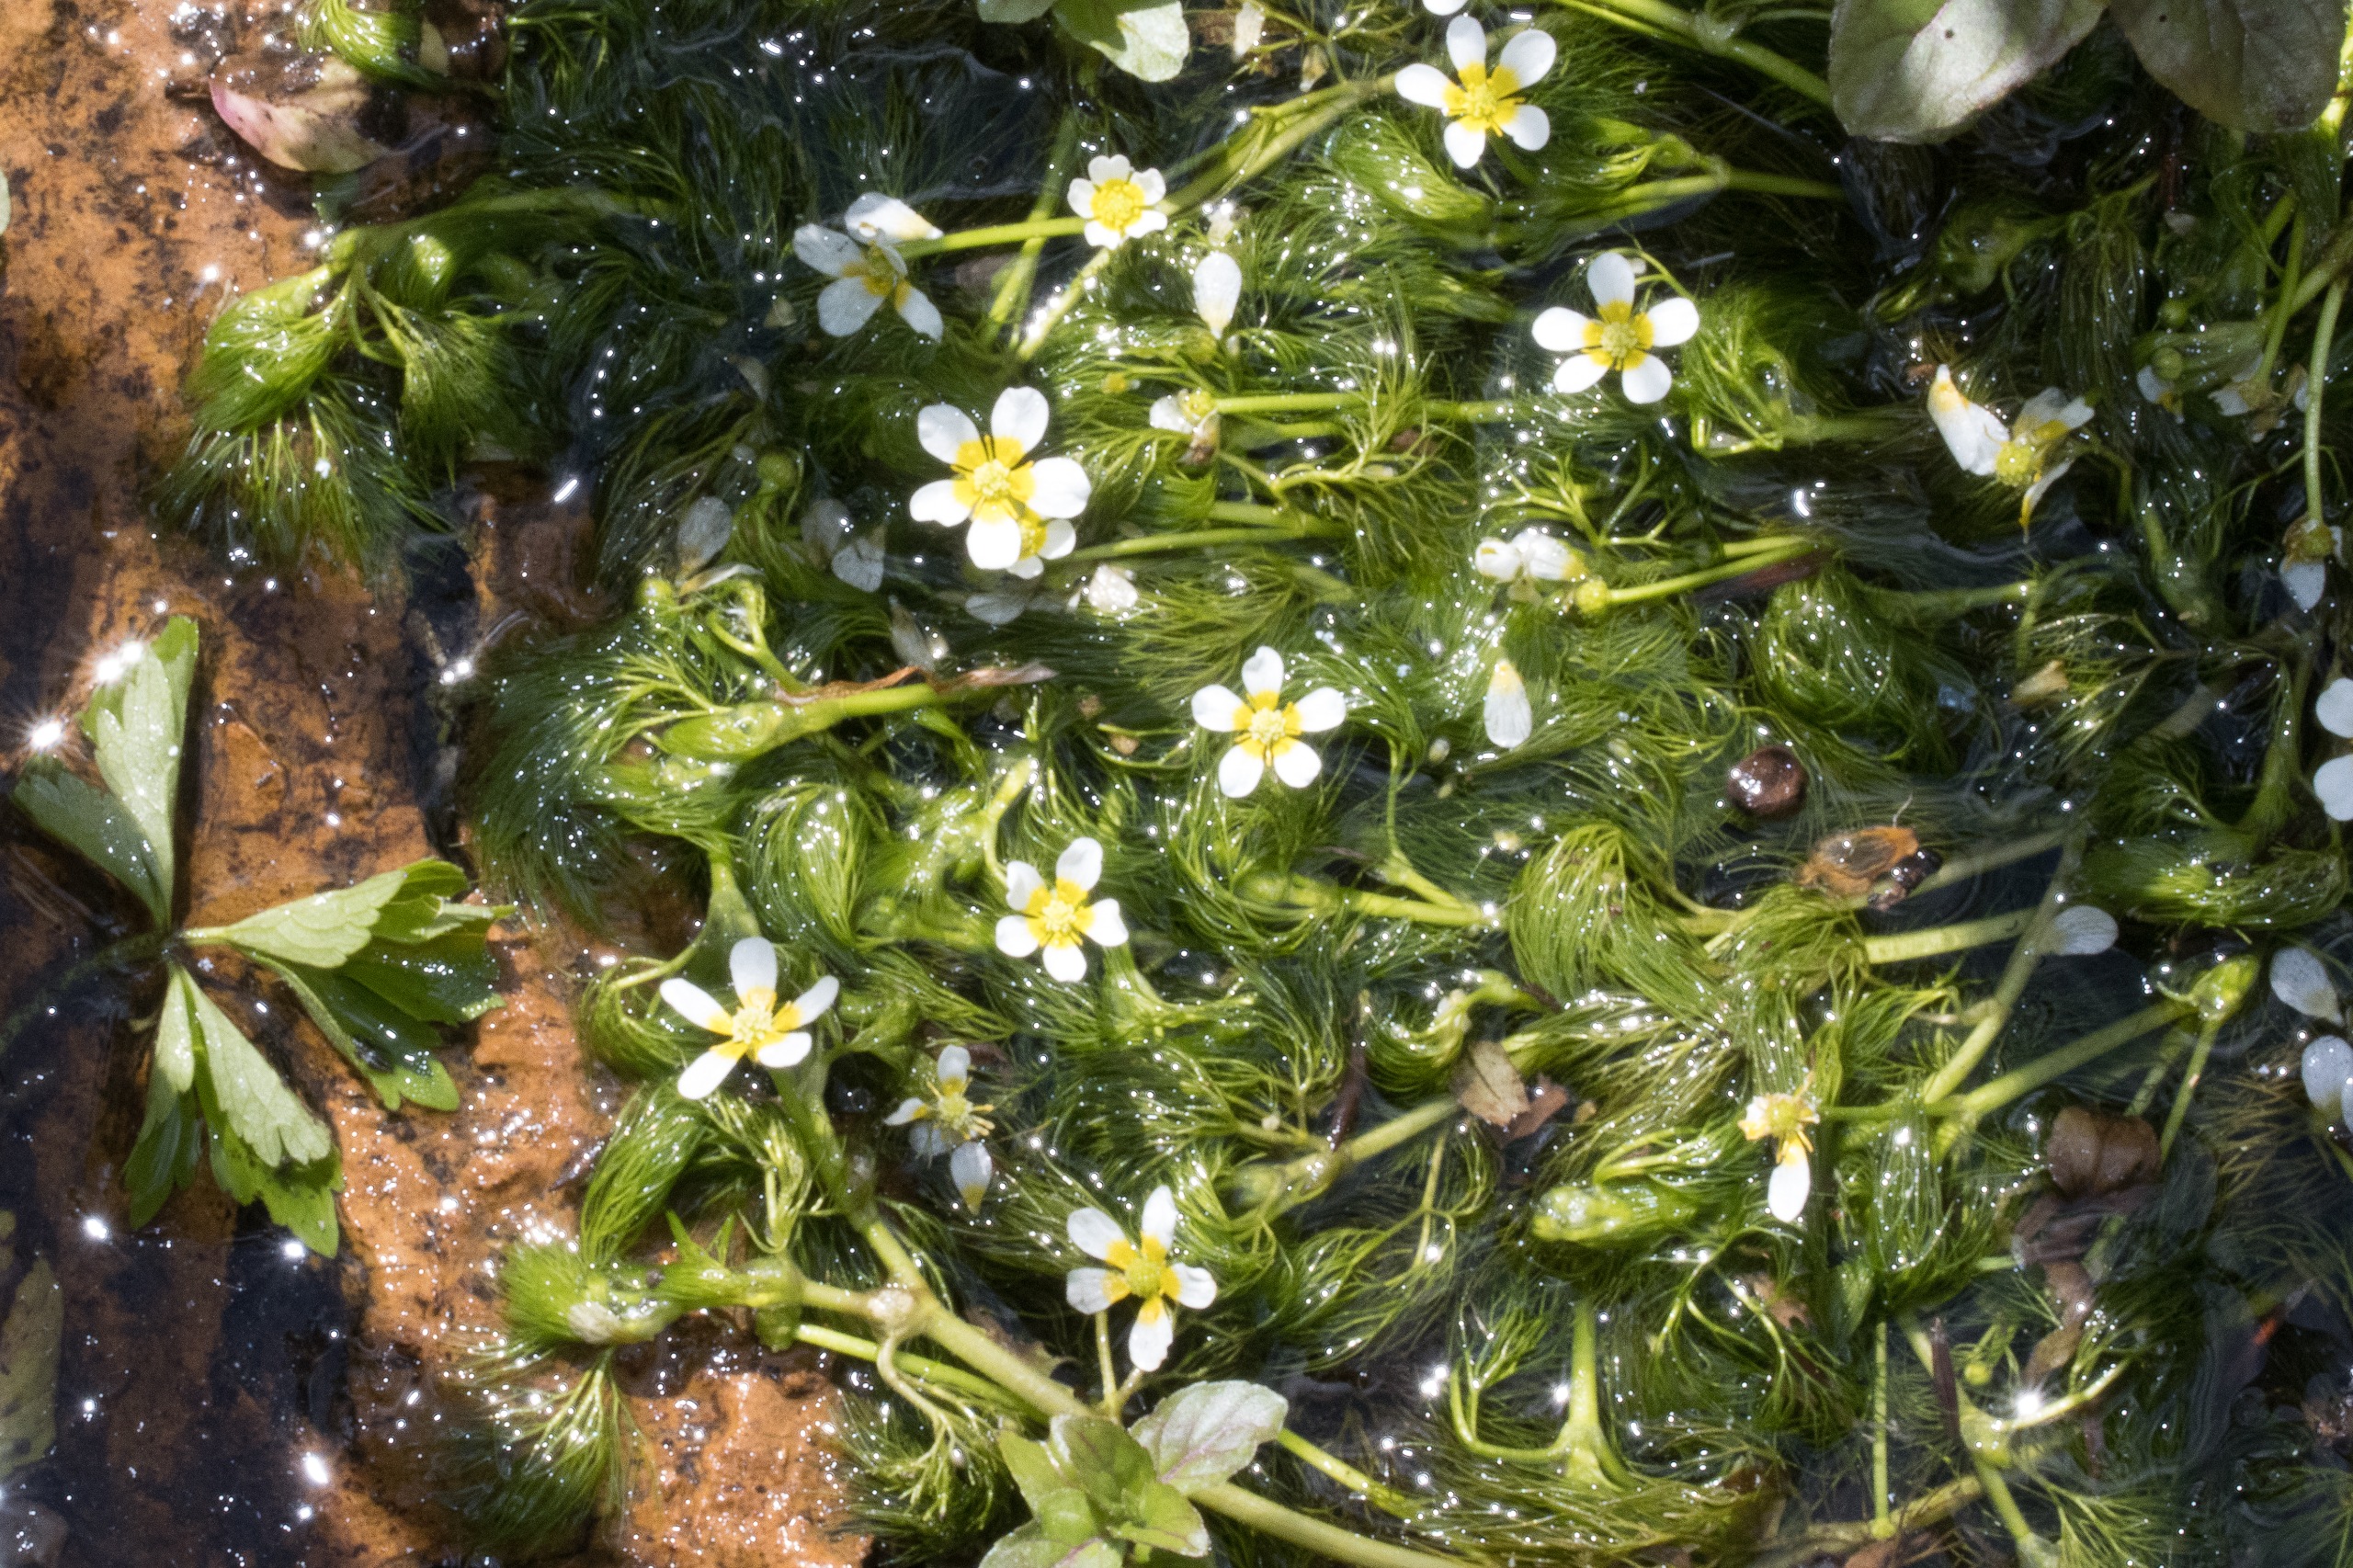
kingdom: Plantae
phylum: Tracheophyta
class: Magnoliopsida
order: Ranunculales
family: Ranunculaceae
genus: Ranunculus
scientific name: Ranunculus trichophyllus
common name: Hårfliget vandranunkel
